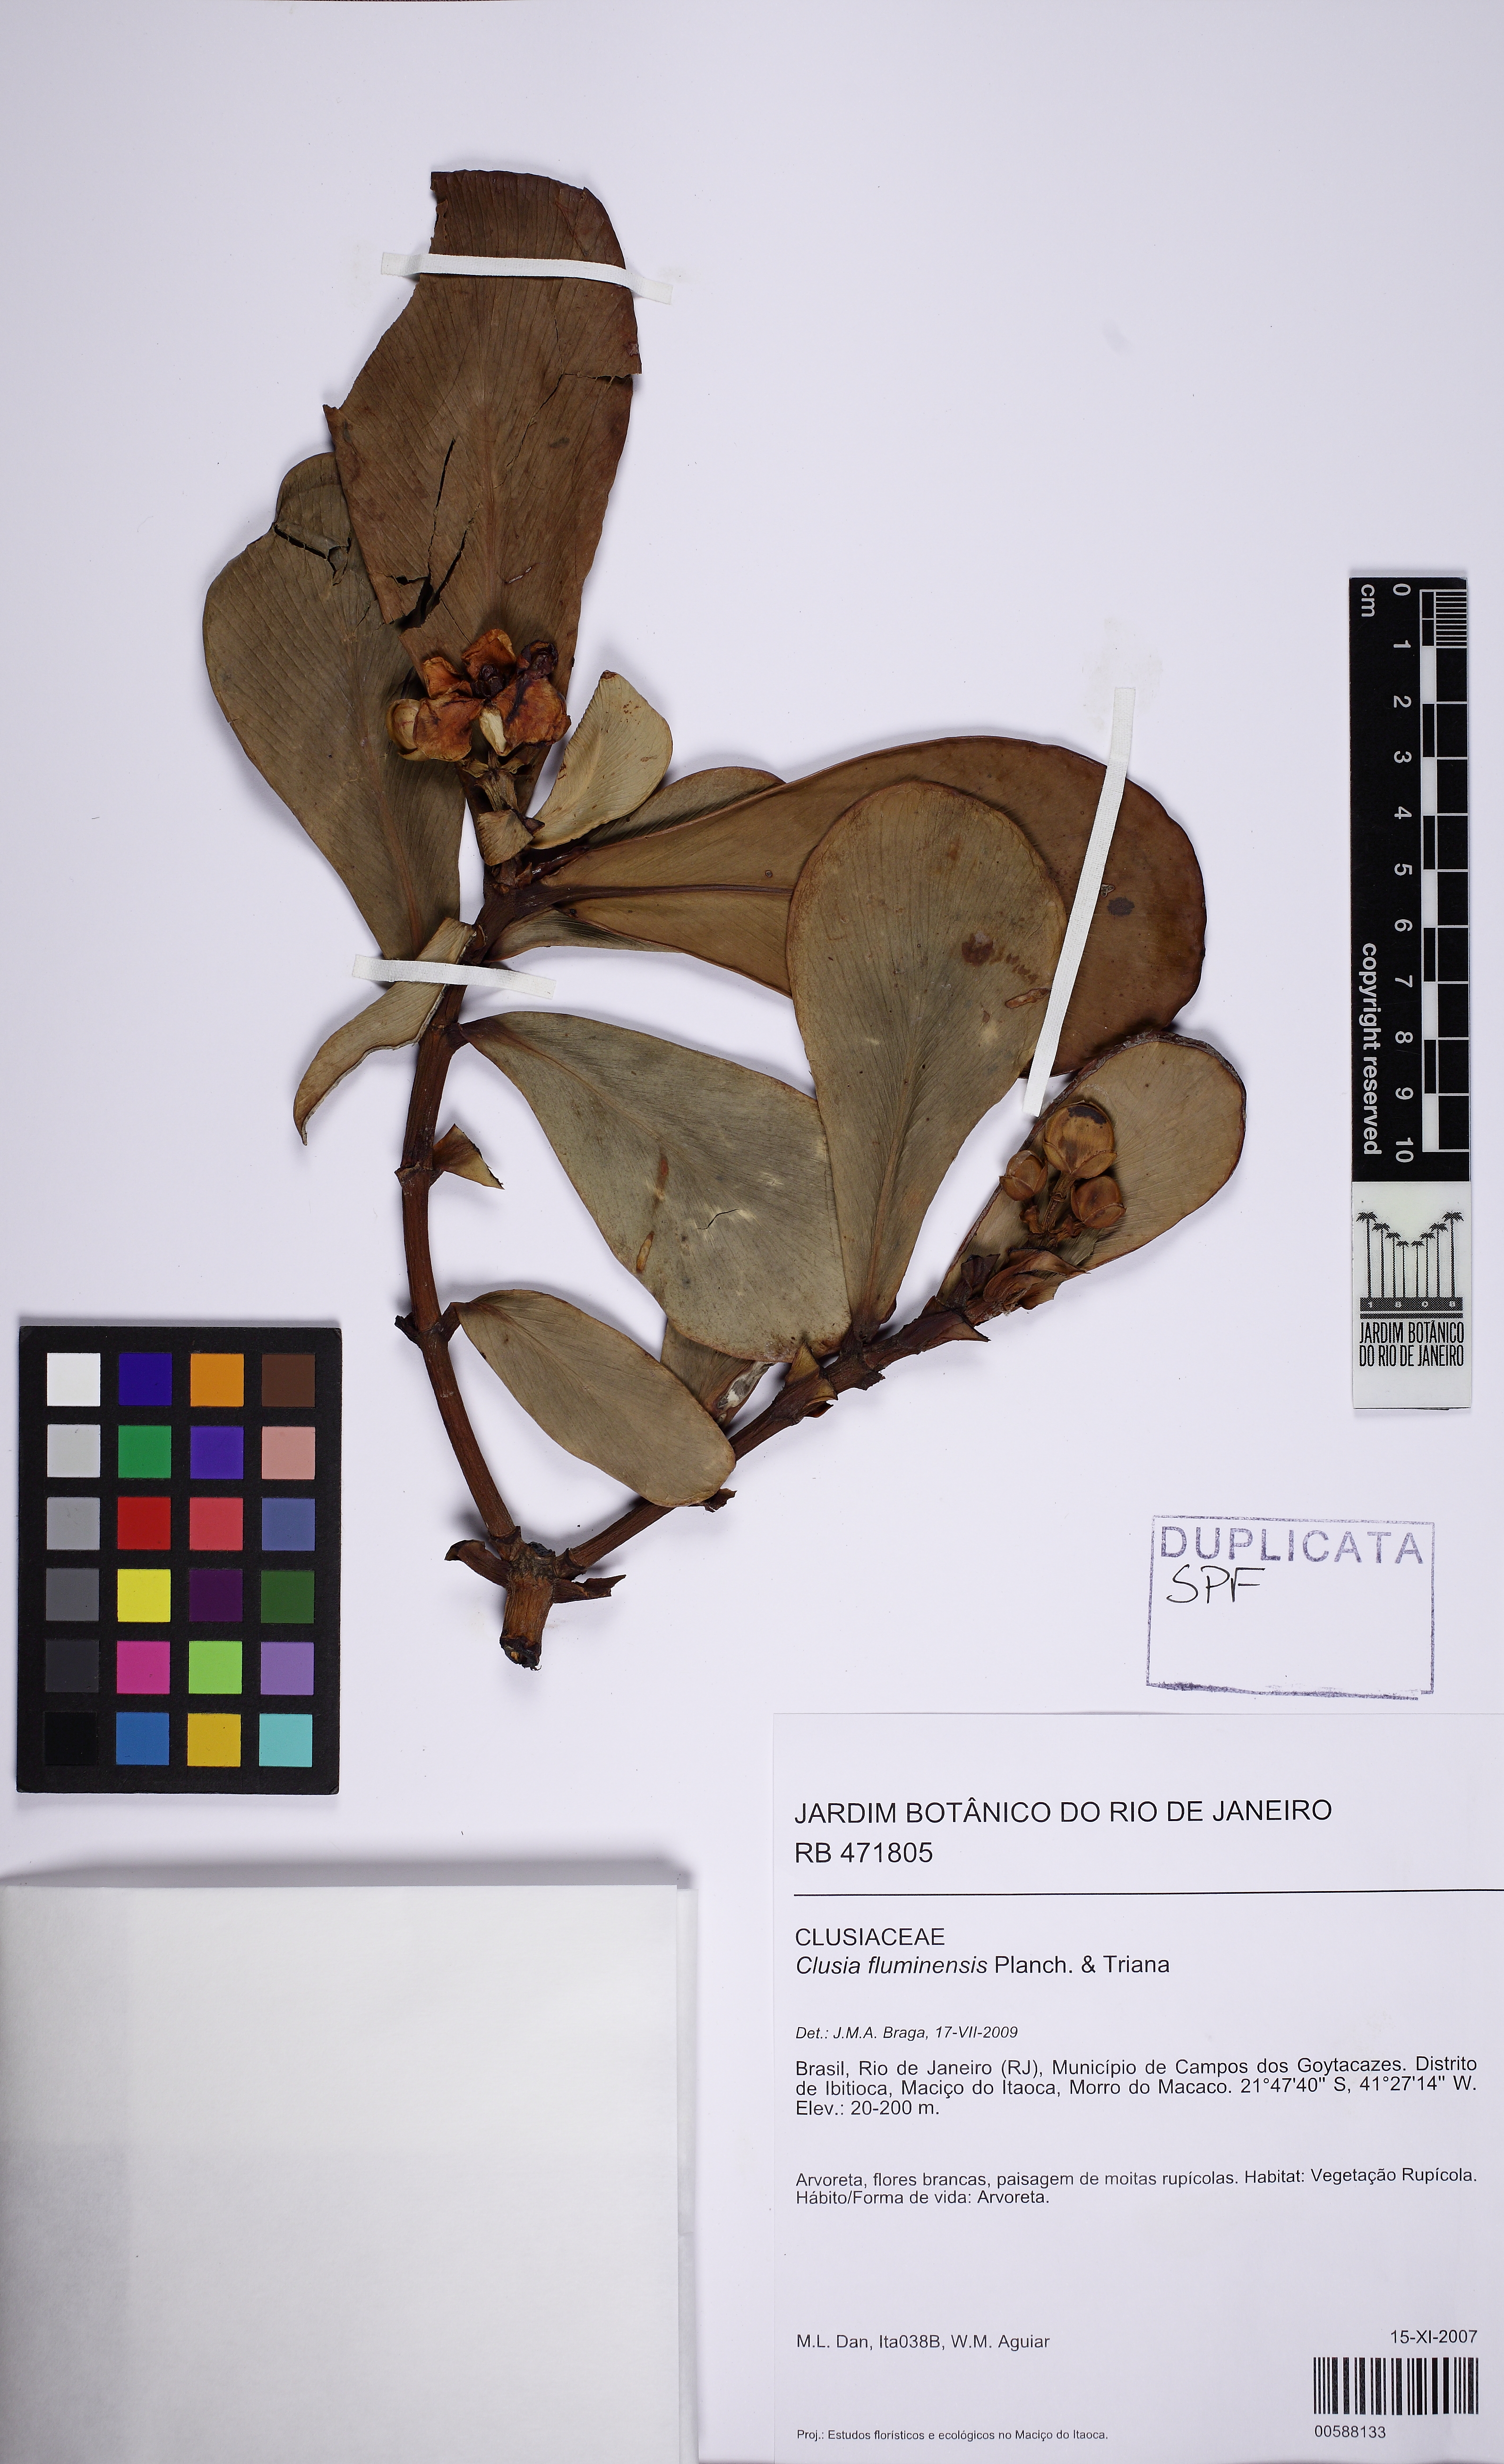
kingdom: Plantae
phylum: Tracheophyta
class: Magnoliopsida
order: Malpighiales
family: Clusiaceae
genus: Clusia
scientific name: Clusia fluminensis
